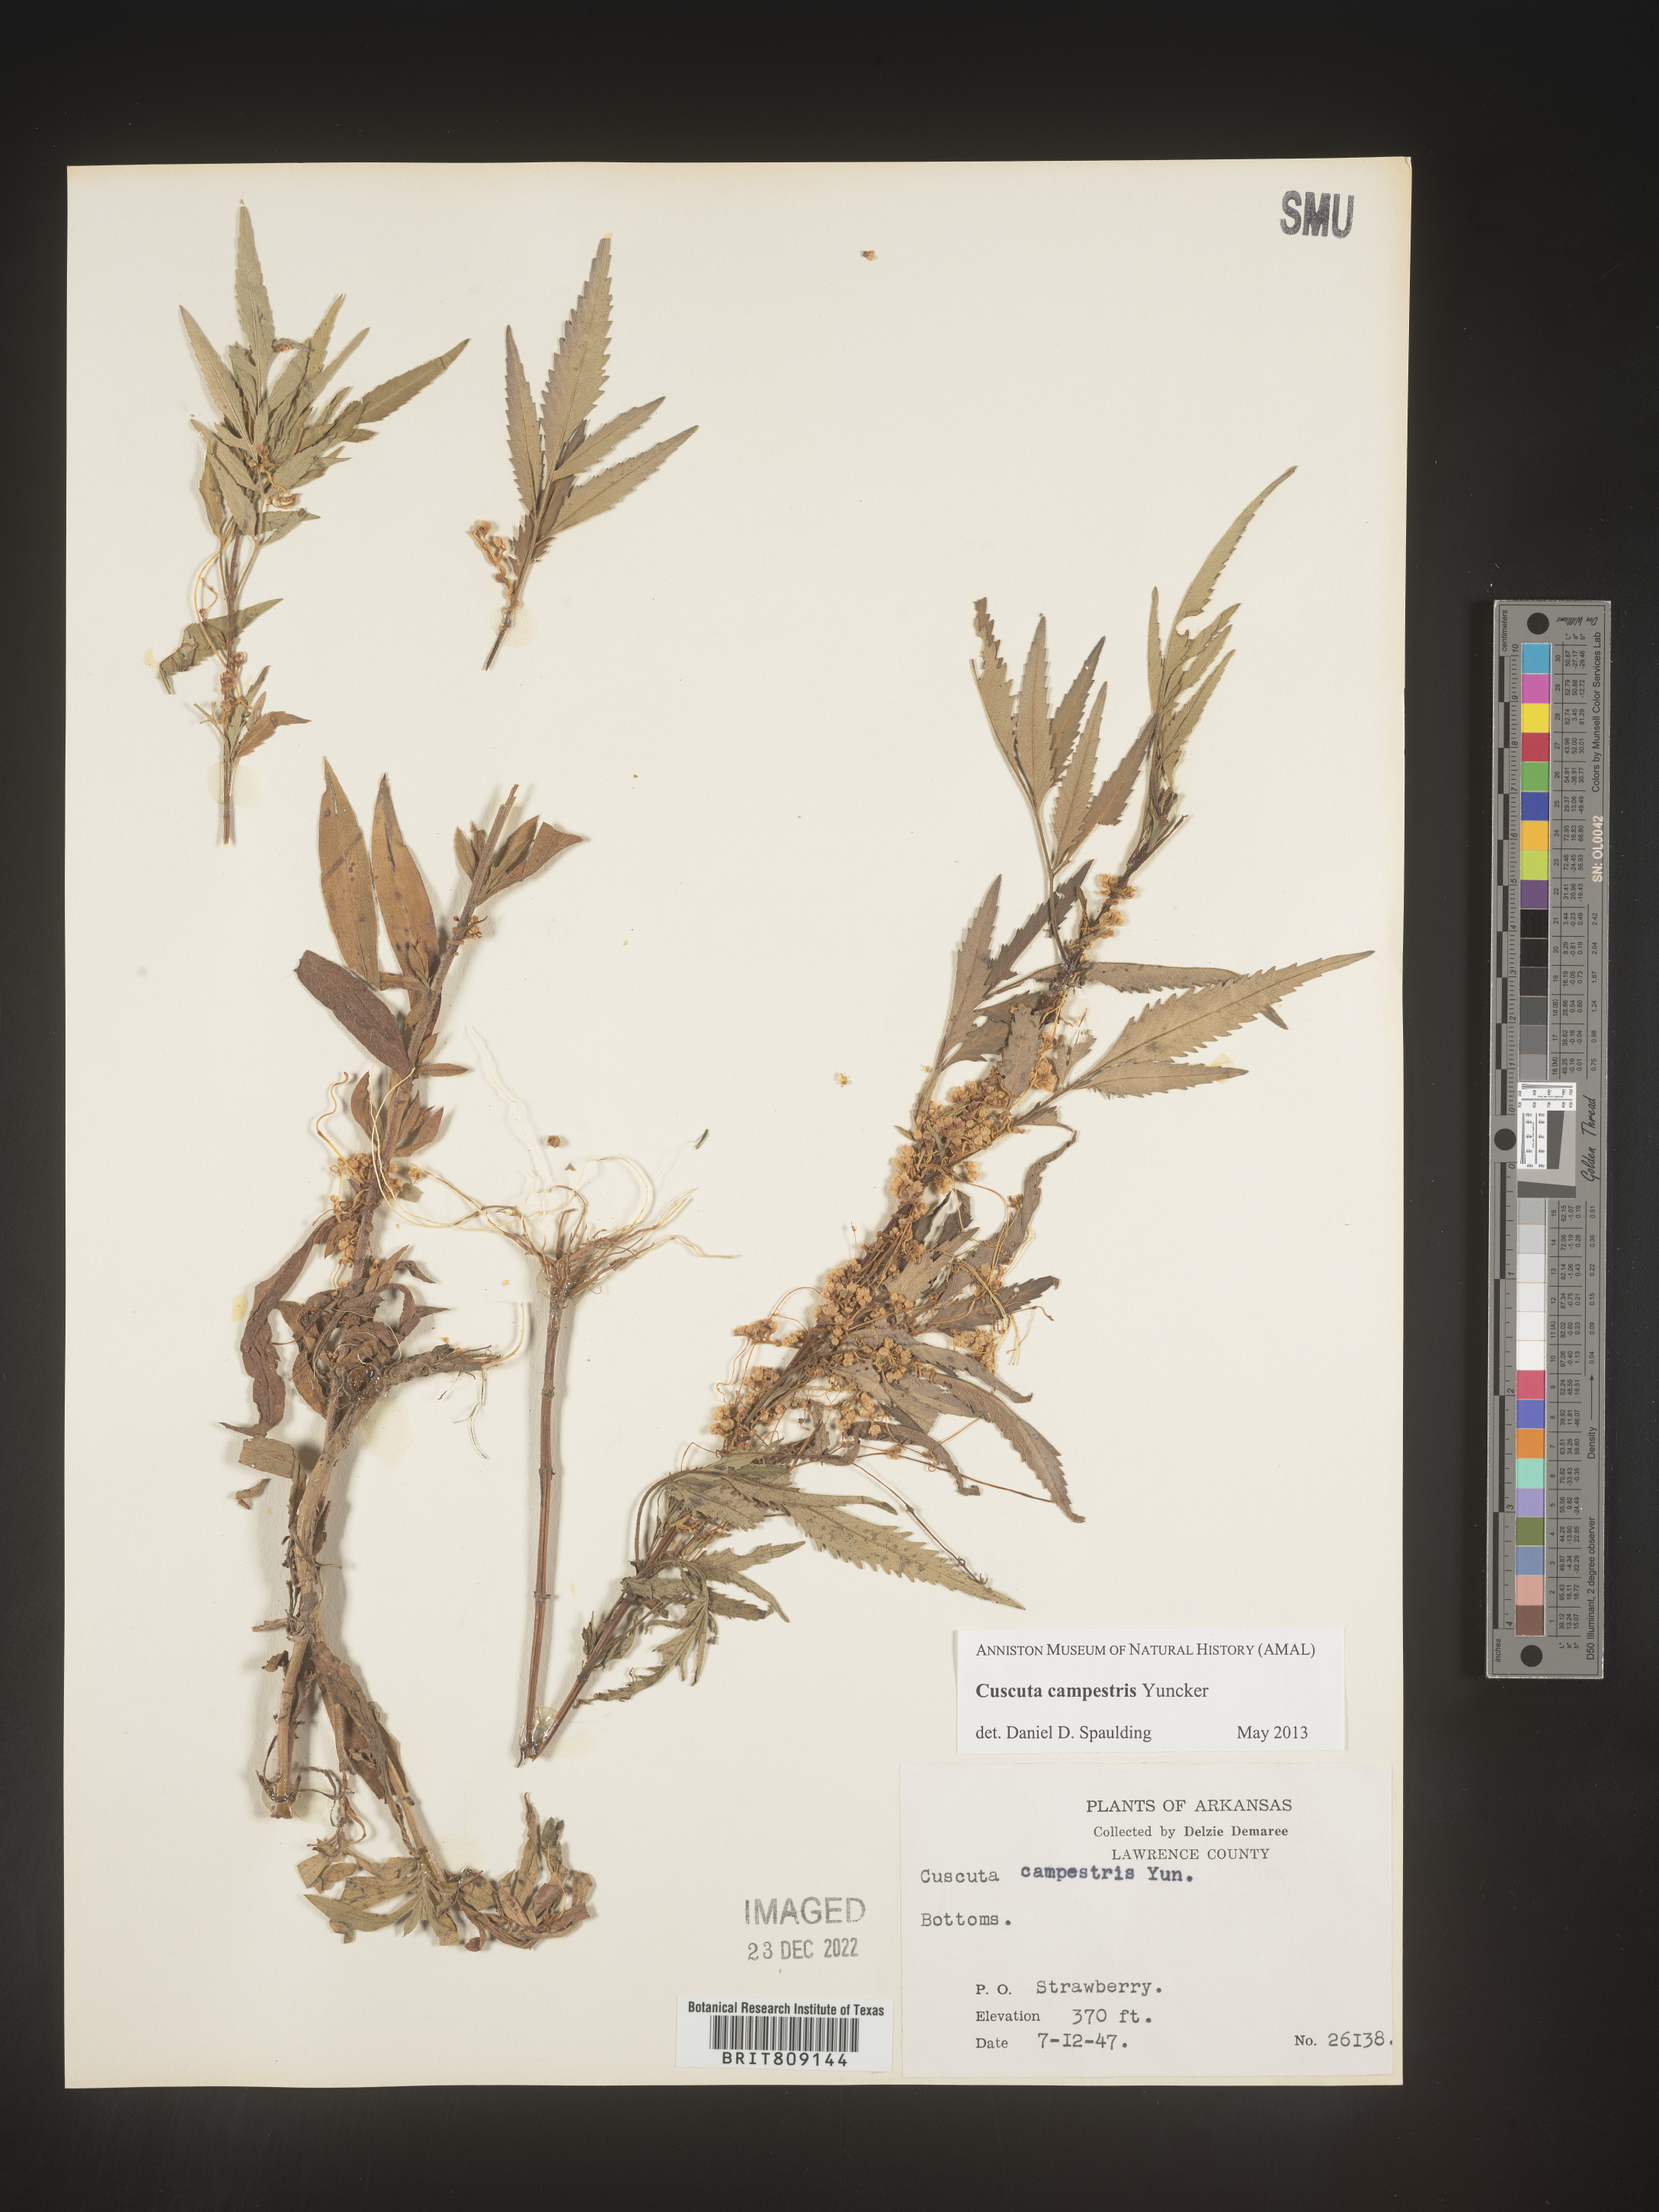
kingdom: Plantae
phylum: Tracheophyta
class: Magnoliopsida
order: Solanales
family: Convolvulaceae
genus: Cuscuta
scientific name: Cuscuta campestris
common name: Yellow dodder
